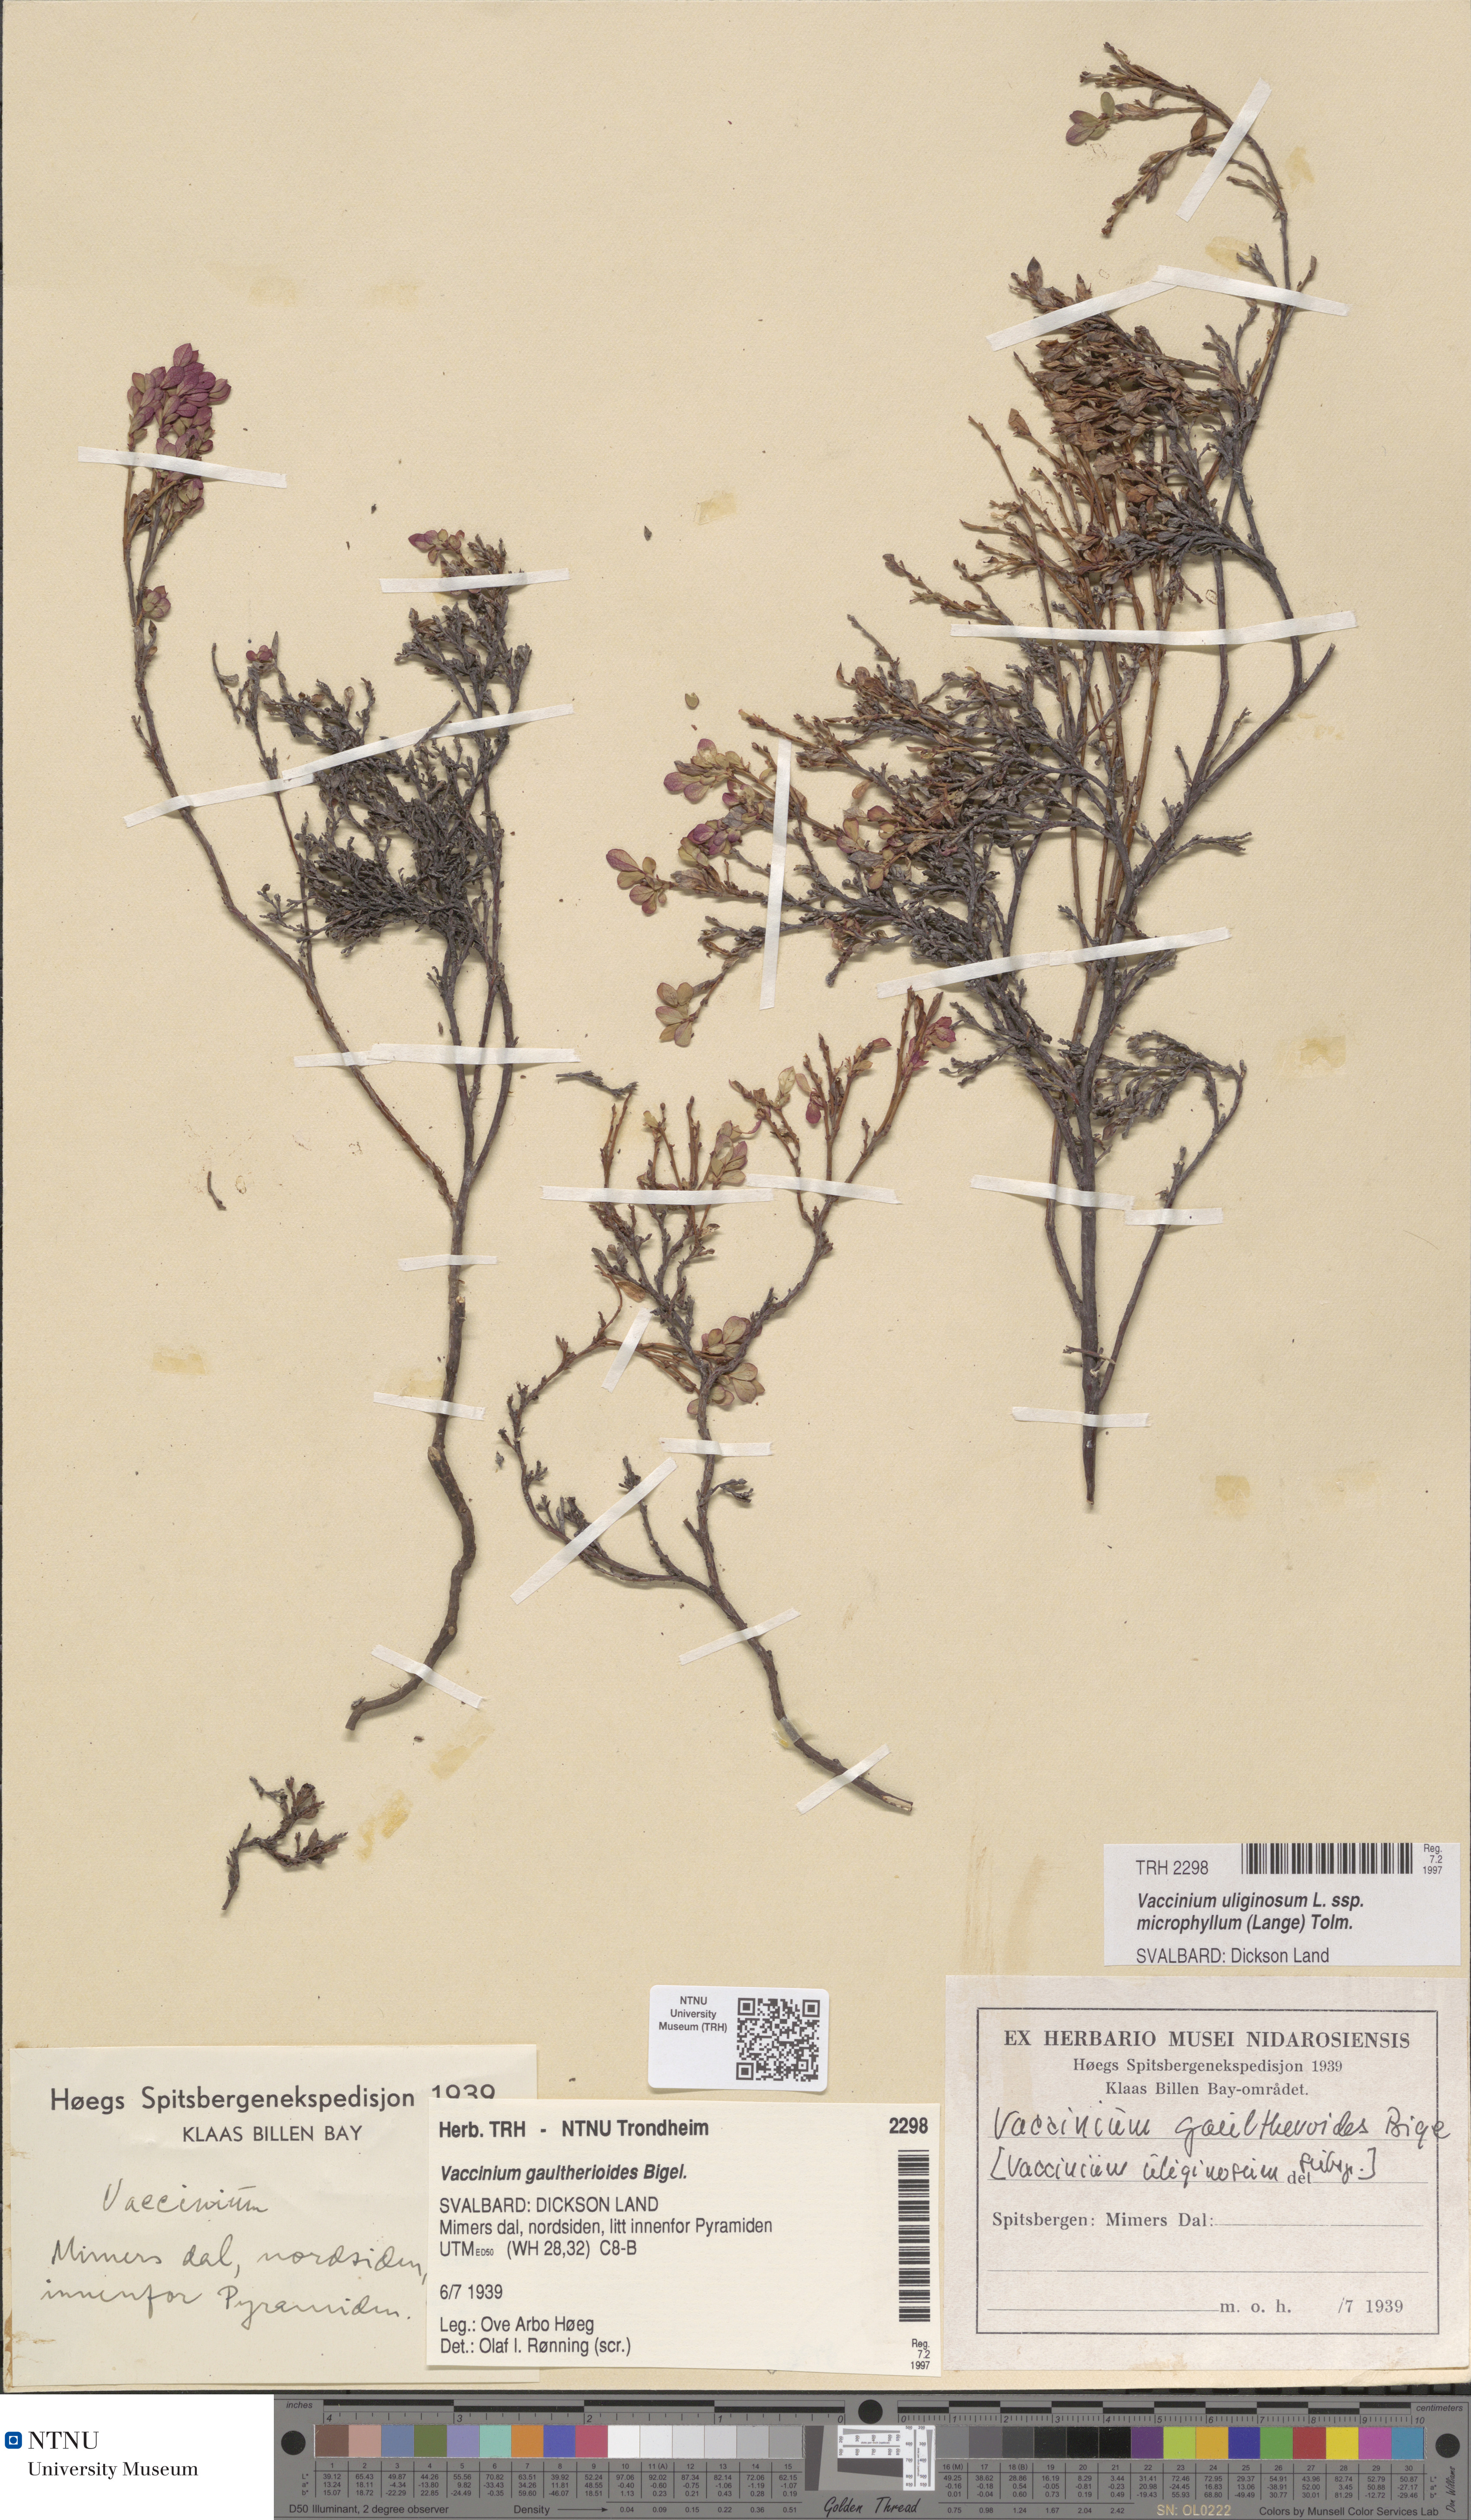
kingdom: Plantae
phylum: Tracheophyta
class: Magnoliopsida
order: Ericales
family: Ericaceae
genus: Vaccinium
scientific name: Vaccinium gaultherioides
